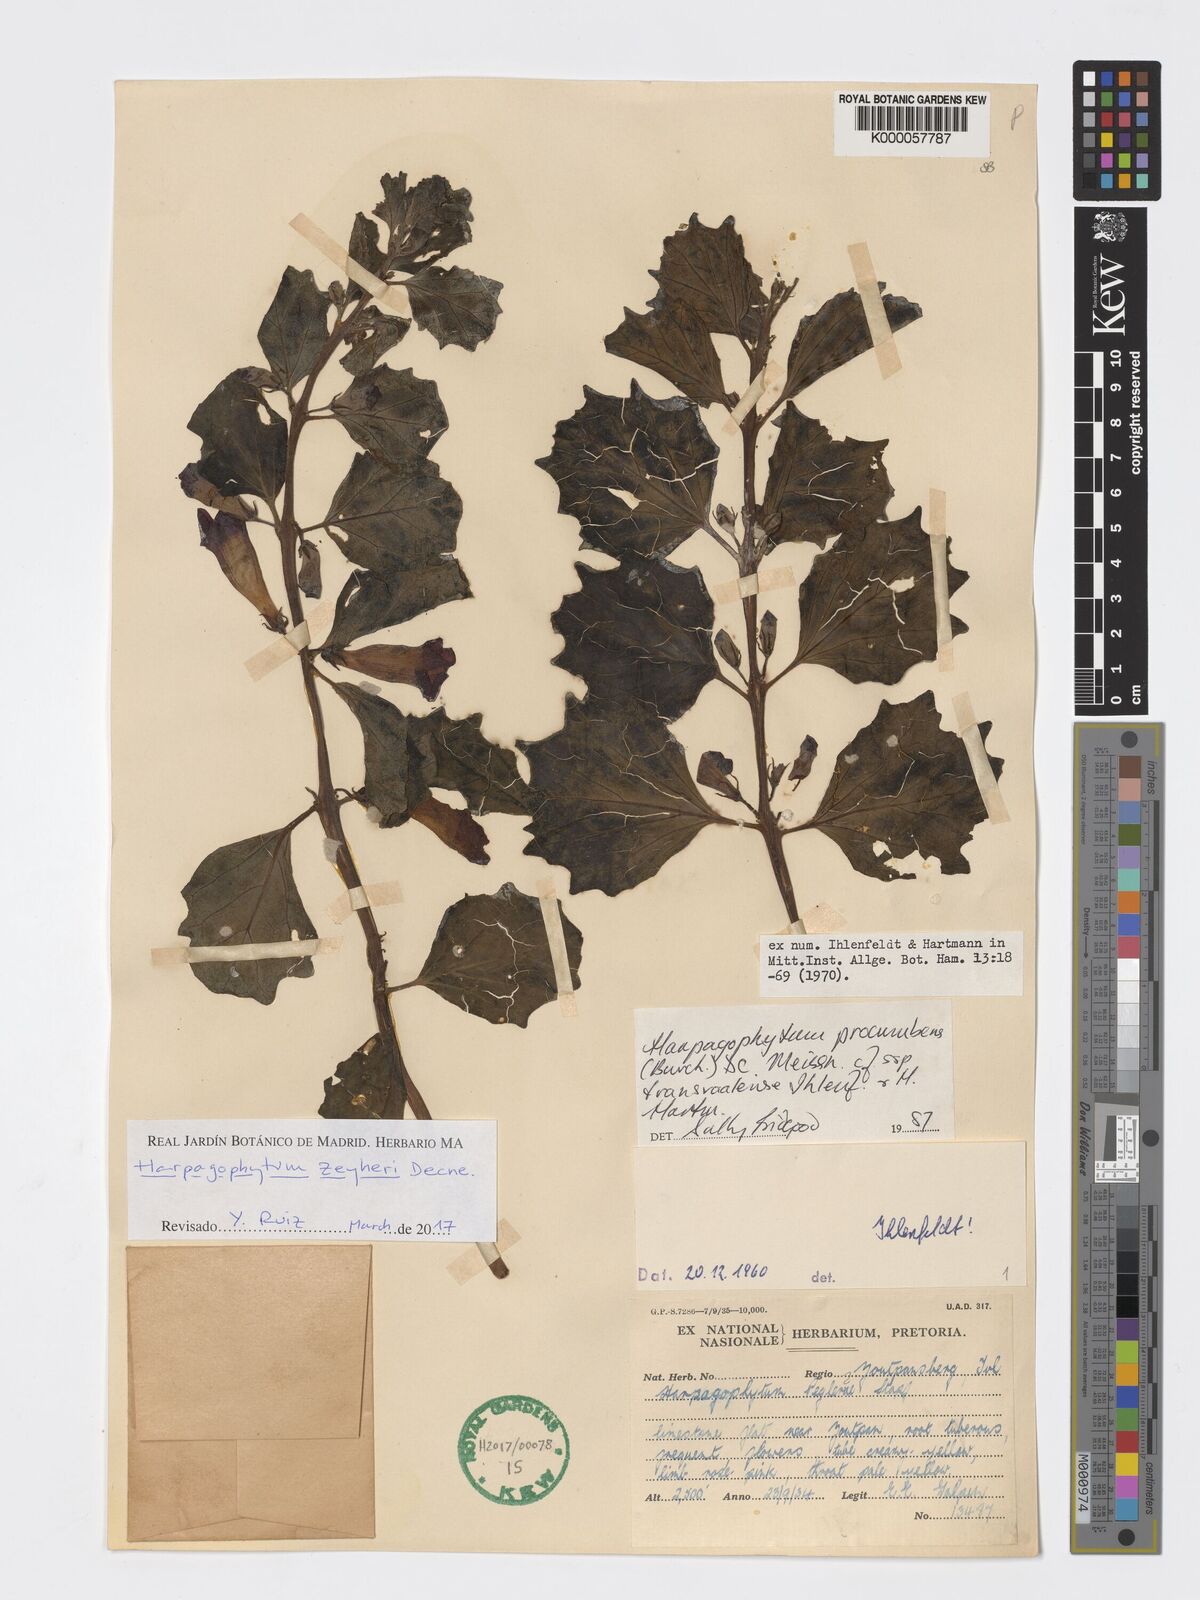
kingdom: Plantae
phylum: Tracheophyta
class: Magnoliopsida
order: Lamiales
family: Pedaliaceae
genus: Harpagophytum
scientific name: Harpagophytum procumbens
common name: Grappleplant
